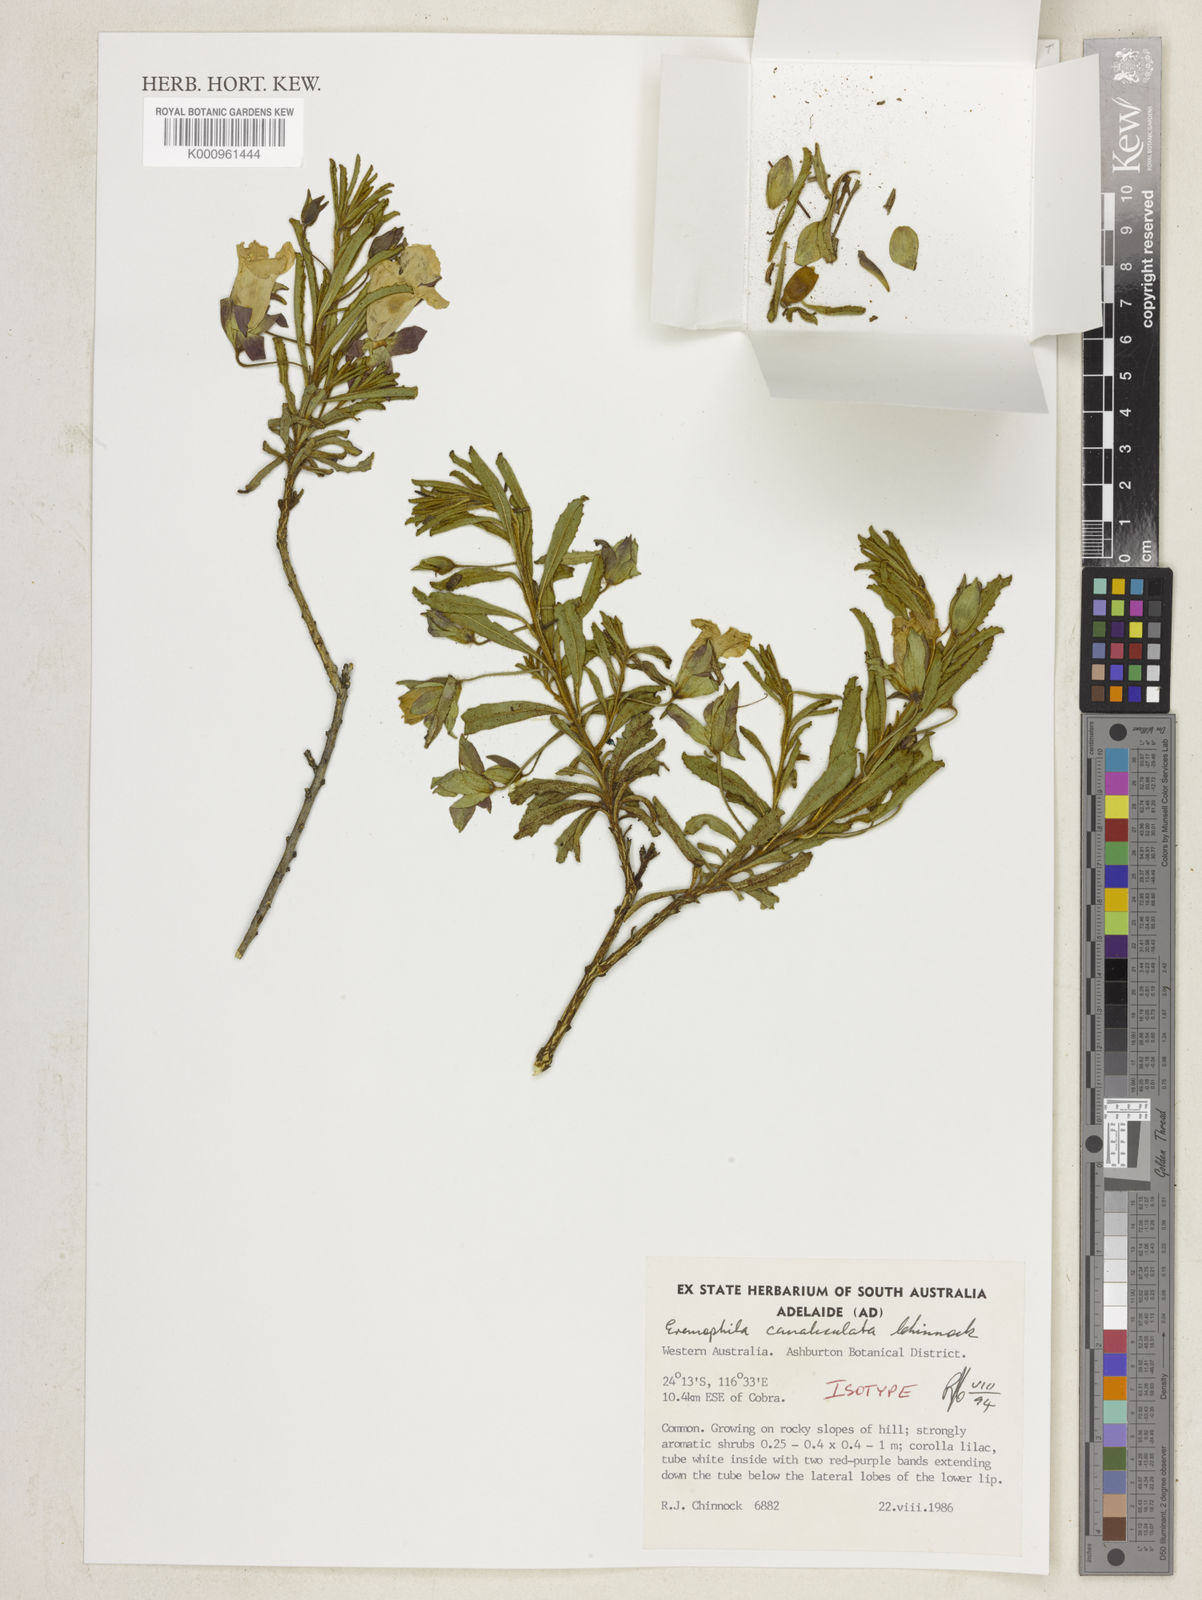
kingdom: Plantae
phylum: Tracheophyta
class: Magnoliopsida
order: Lamiales
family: Scrophulariaceae
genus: Eremophila
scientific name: Eremophila canaliculata
